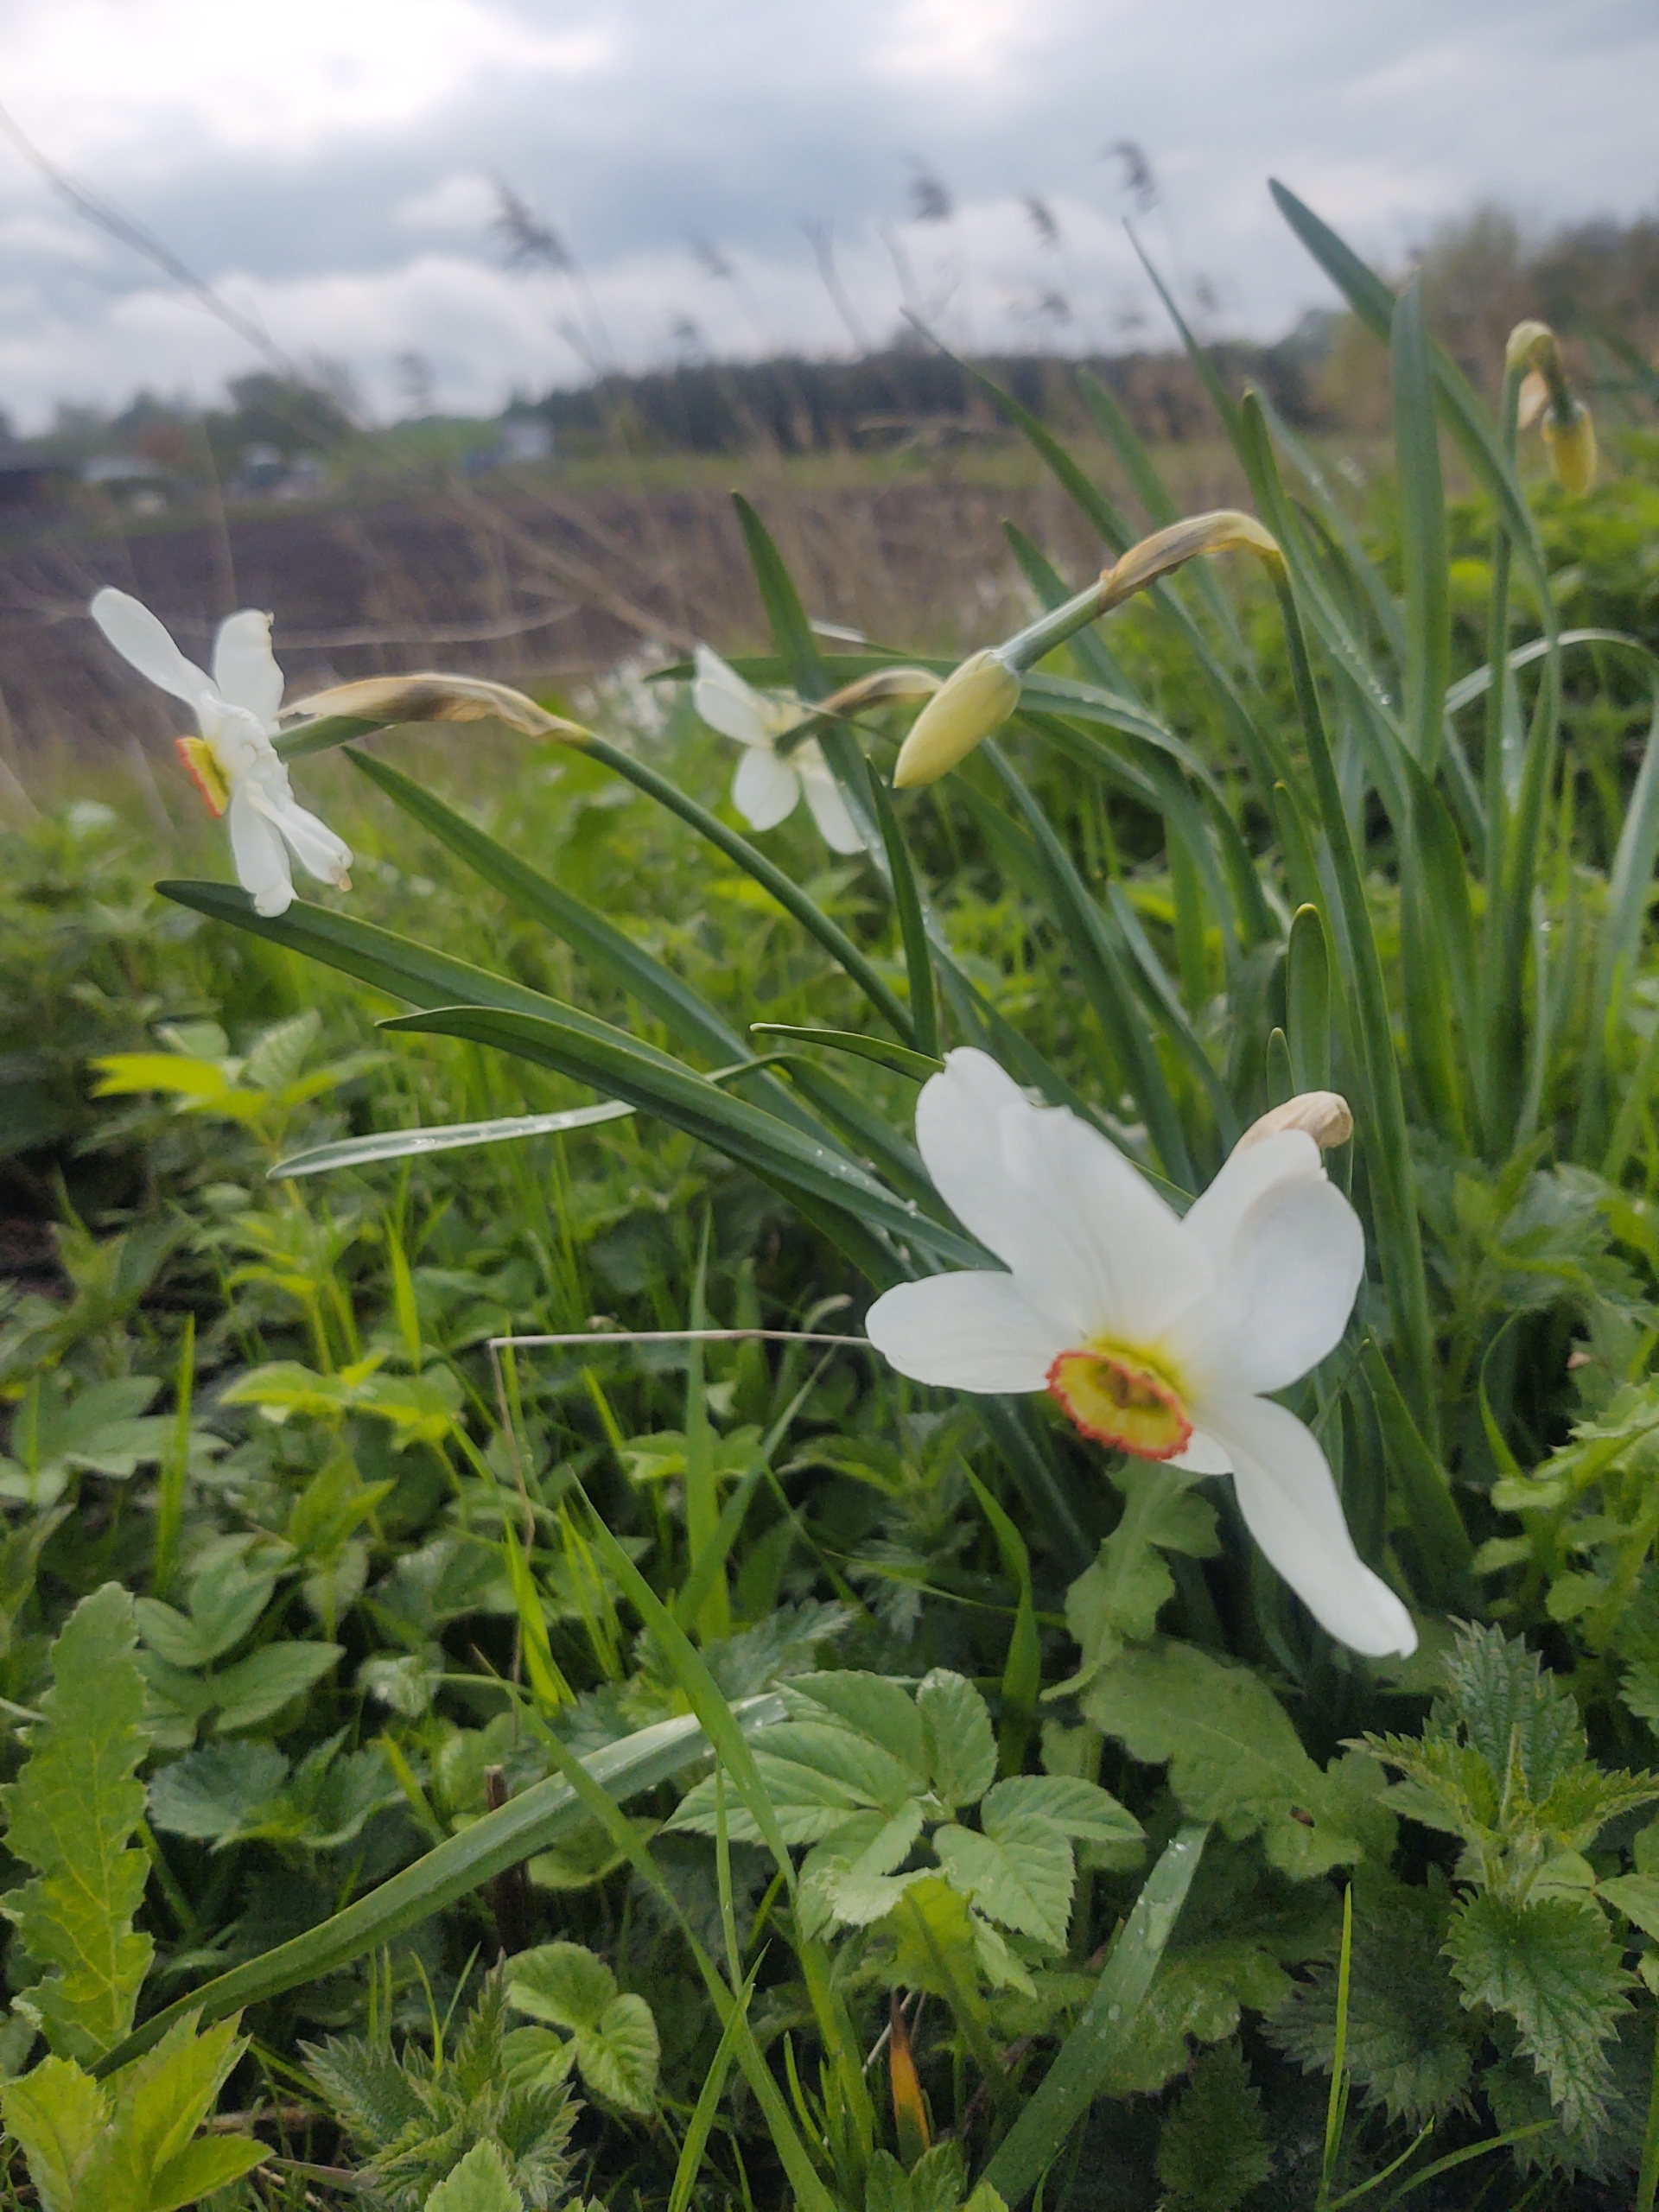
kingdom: Plantae
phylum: Tracheophyta
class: Liliopsida
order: Asparagales
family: Amaryllidaceae
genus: Narcissus
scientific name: Narcissus poeticus
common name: Pinselilje
